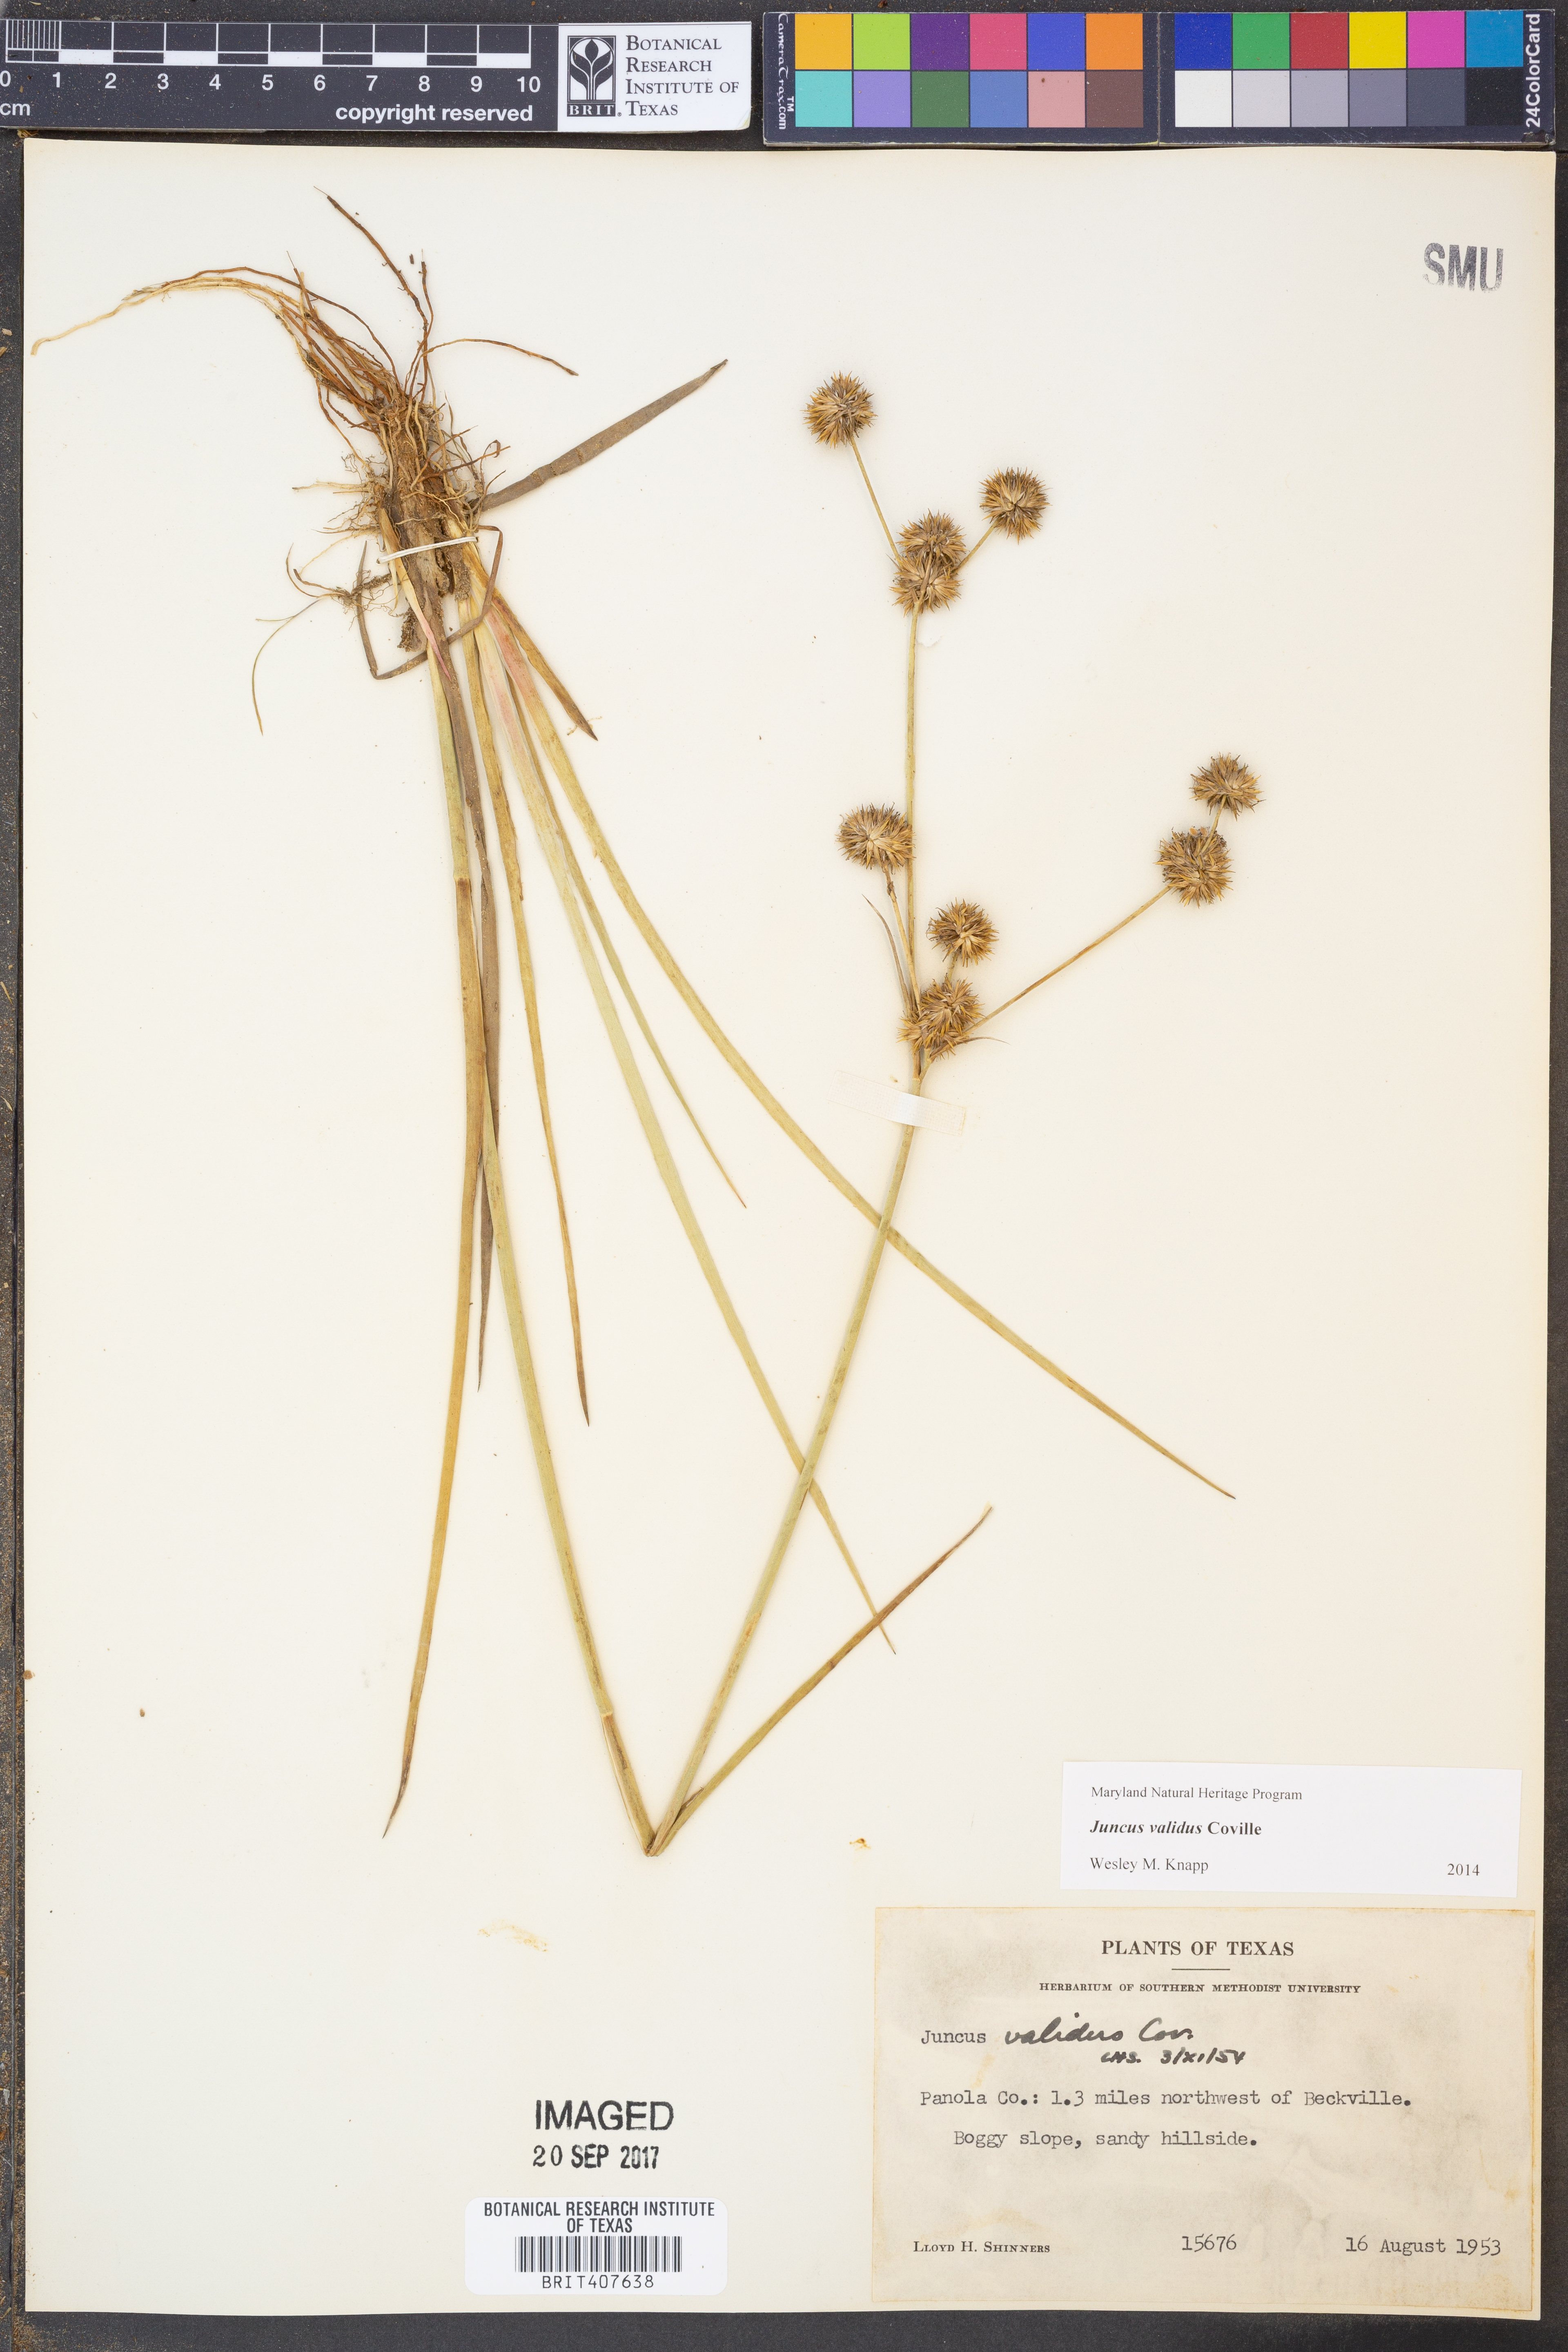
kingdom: Plantae
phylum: Tracheophyta
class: Liliopsida
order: Poales
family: Juncaceae
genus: Juncus
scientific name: Juncus validus
